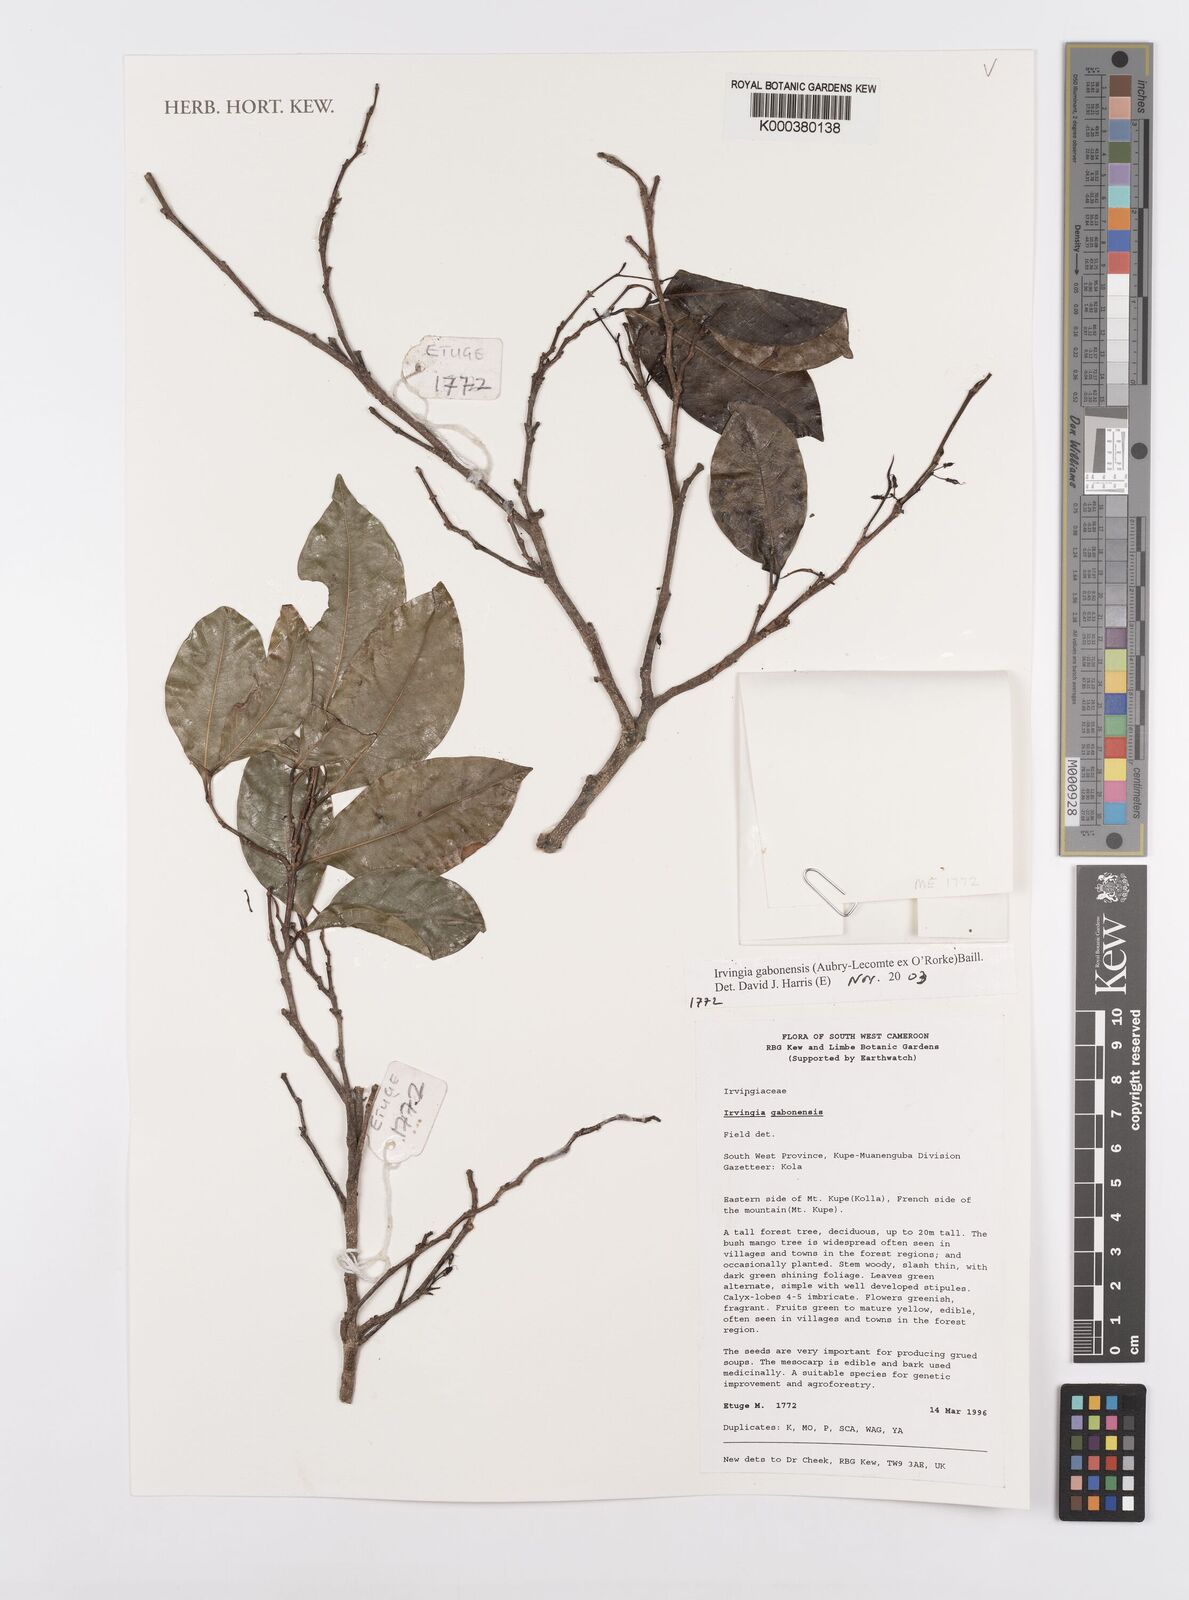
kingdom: Plantae
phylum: Tracheophyta
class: Magnoliopsida
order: Malpighiales
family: Irvingiaceae
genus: Irvingia
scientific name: Irvingia gabonensis
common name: Rainy season bush-mango
